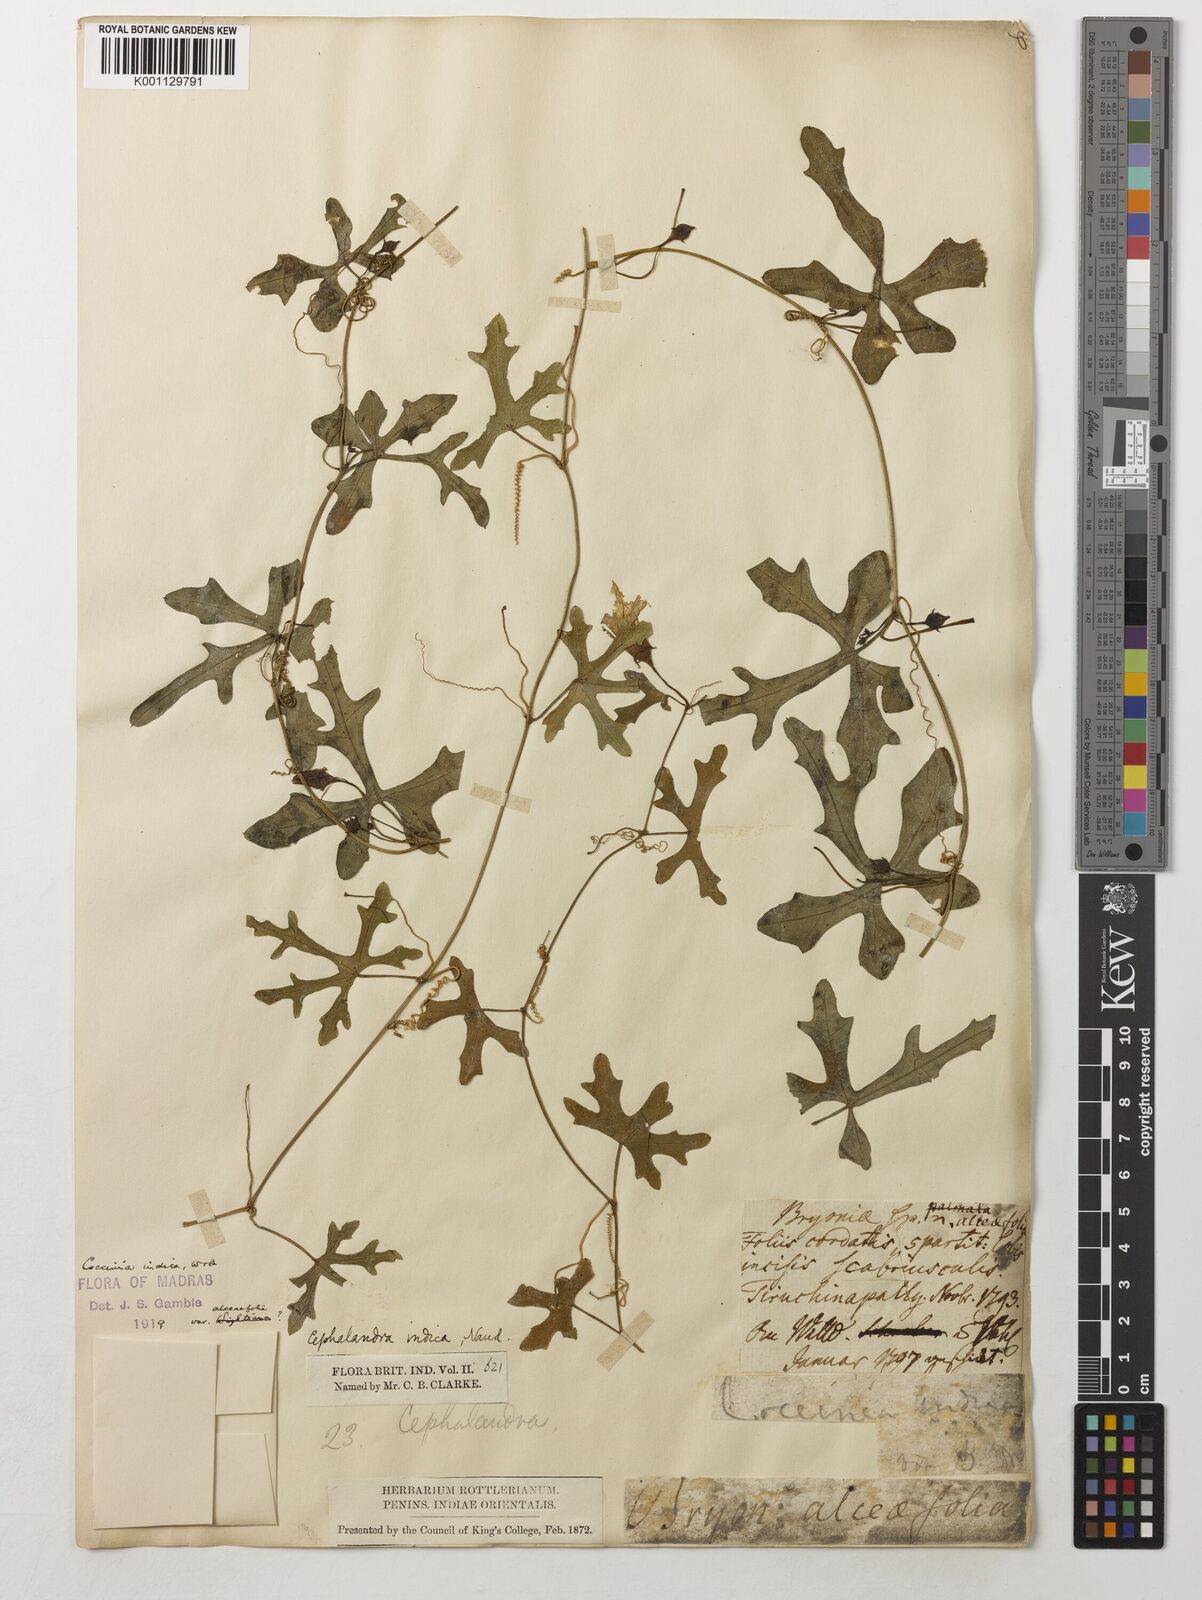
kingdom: Plantae
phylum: Tracheophyta
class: Magnoliopsida
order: Cucurbitales
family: Cucurbitaceae
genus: Coccinia
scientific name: Coccinia grandis
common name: Ivy gourd
